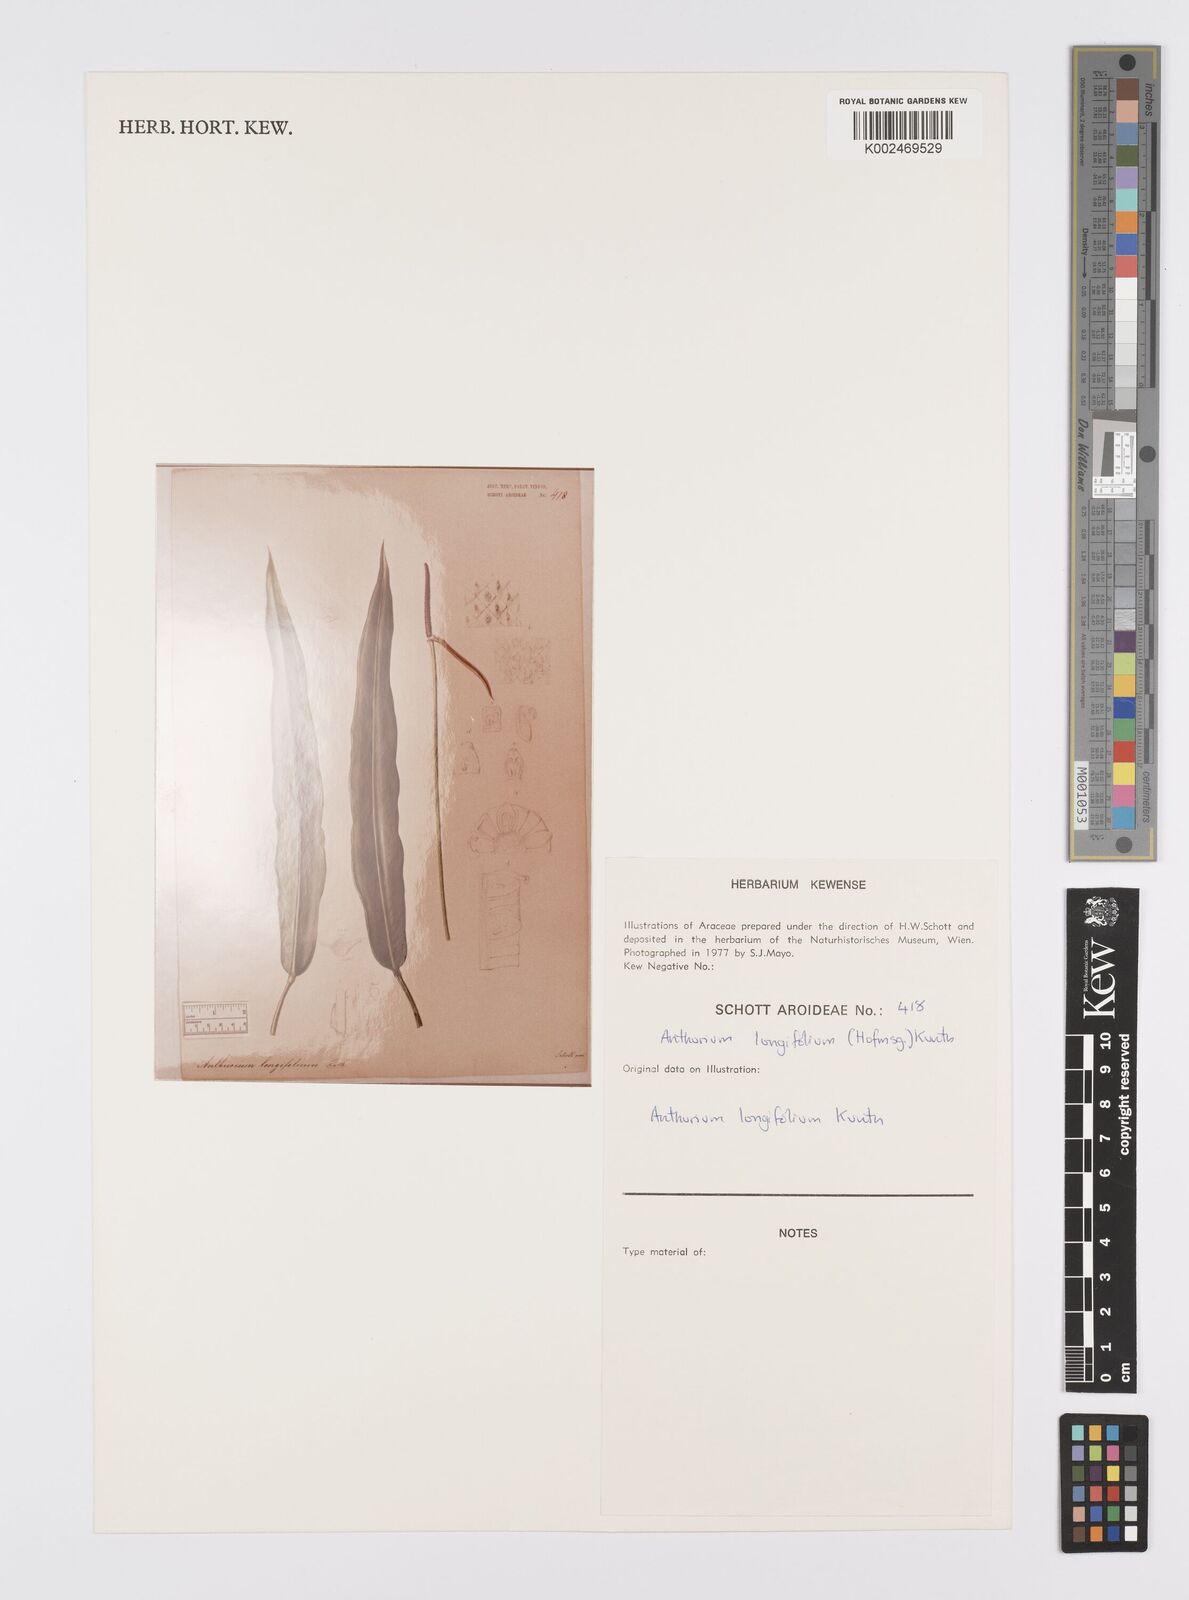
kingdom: Plantae
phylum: Tracheophyta
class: Liliopsida
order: Alismatales
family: Araceae
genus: Anthurium
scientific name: Anthurium longifolium
